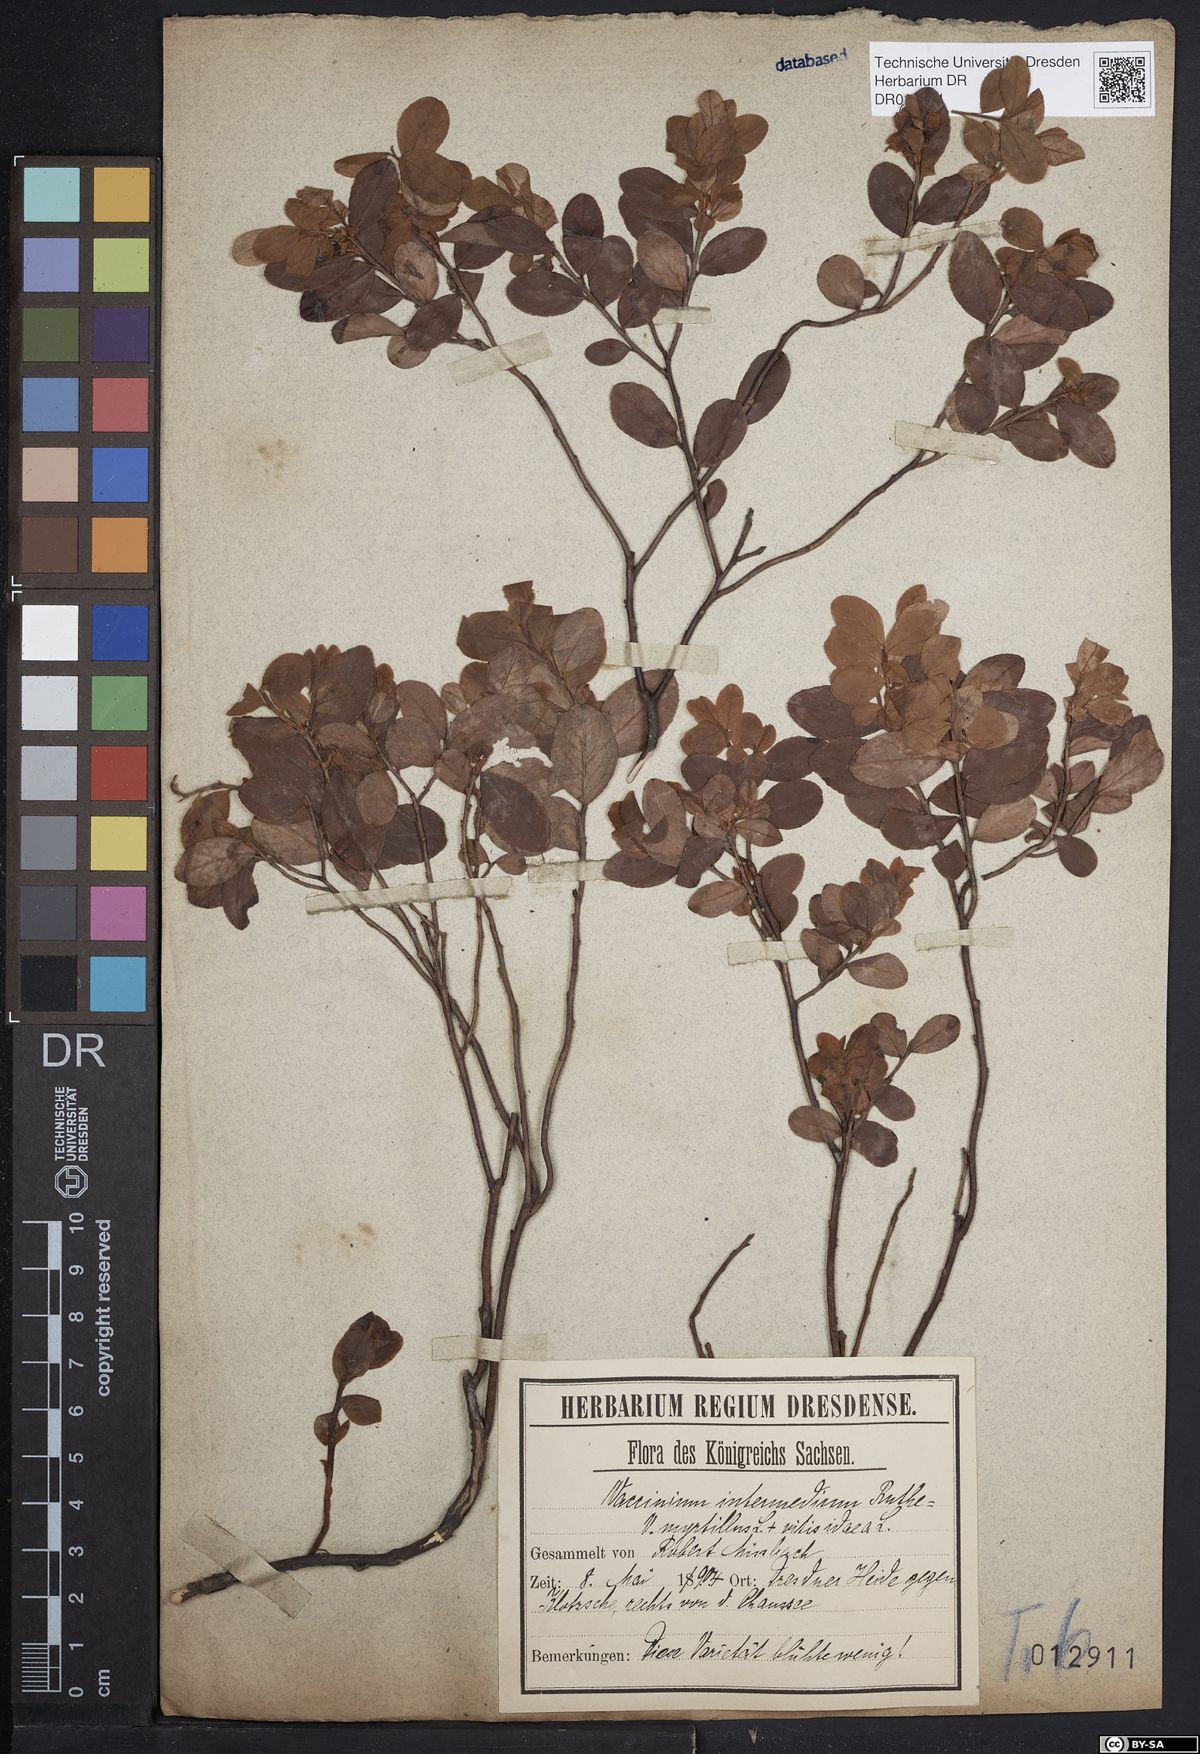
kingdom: Plantae
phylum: Tracheophyta
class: Magnoliopsida
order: Ericales
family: Ericaceae
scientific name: Ericaceae
